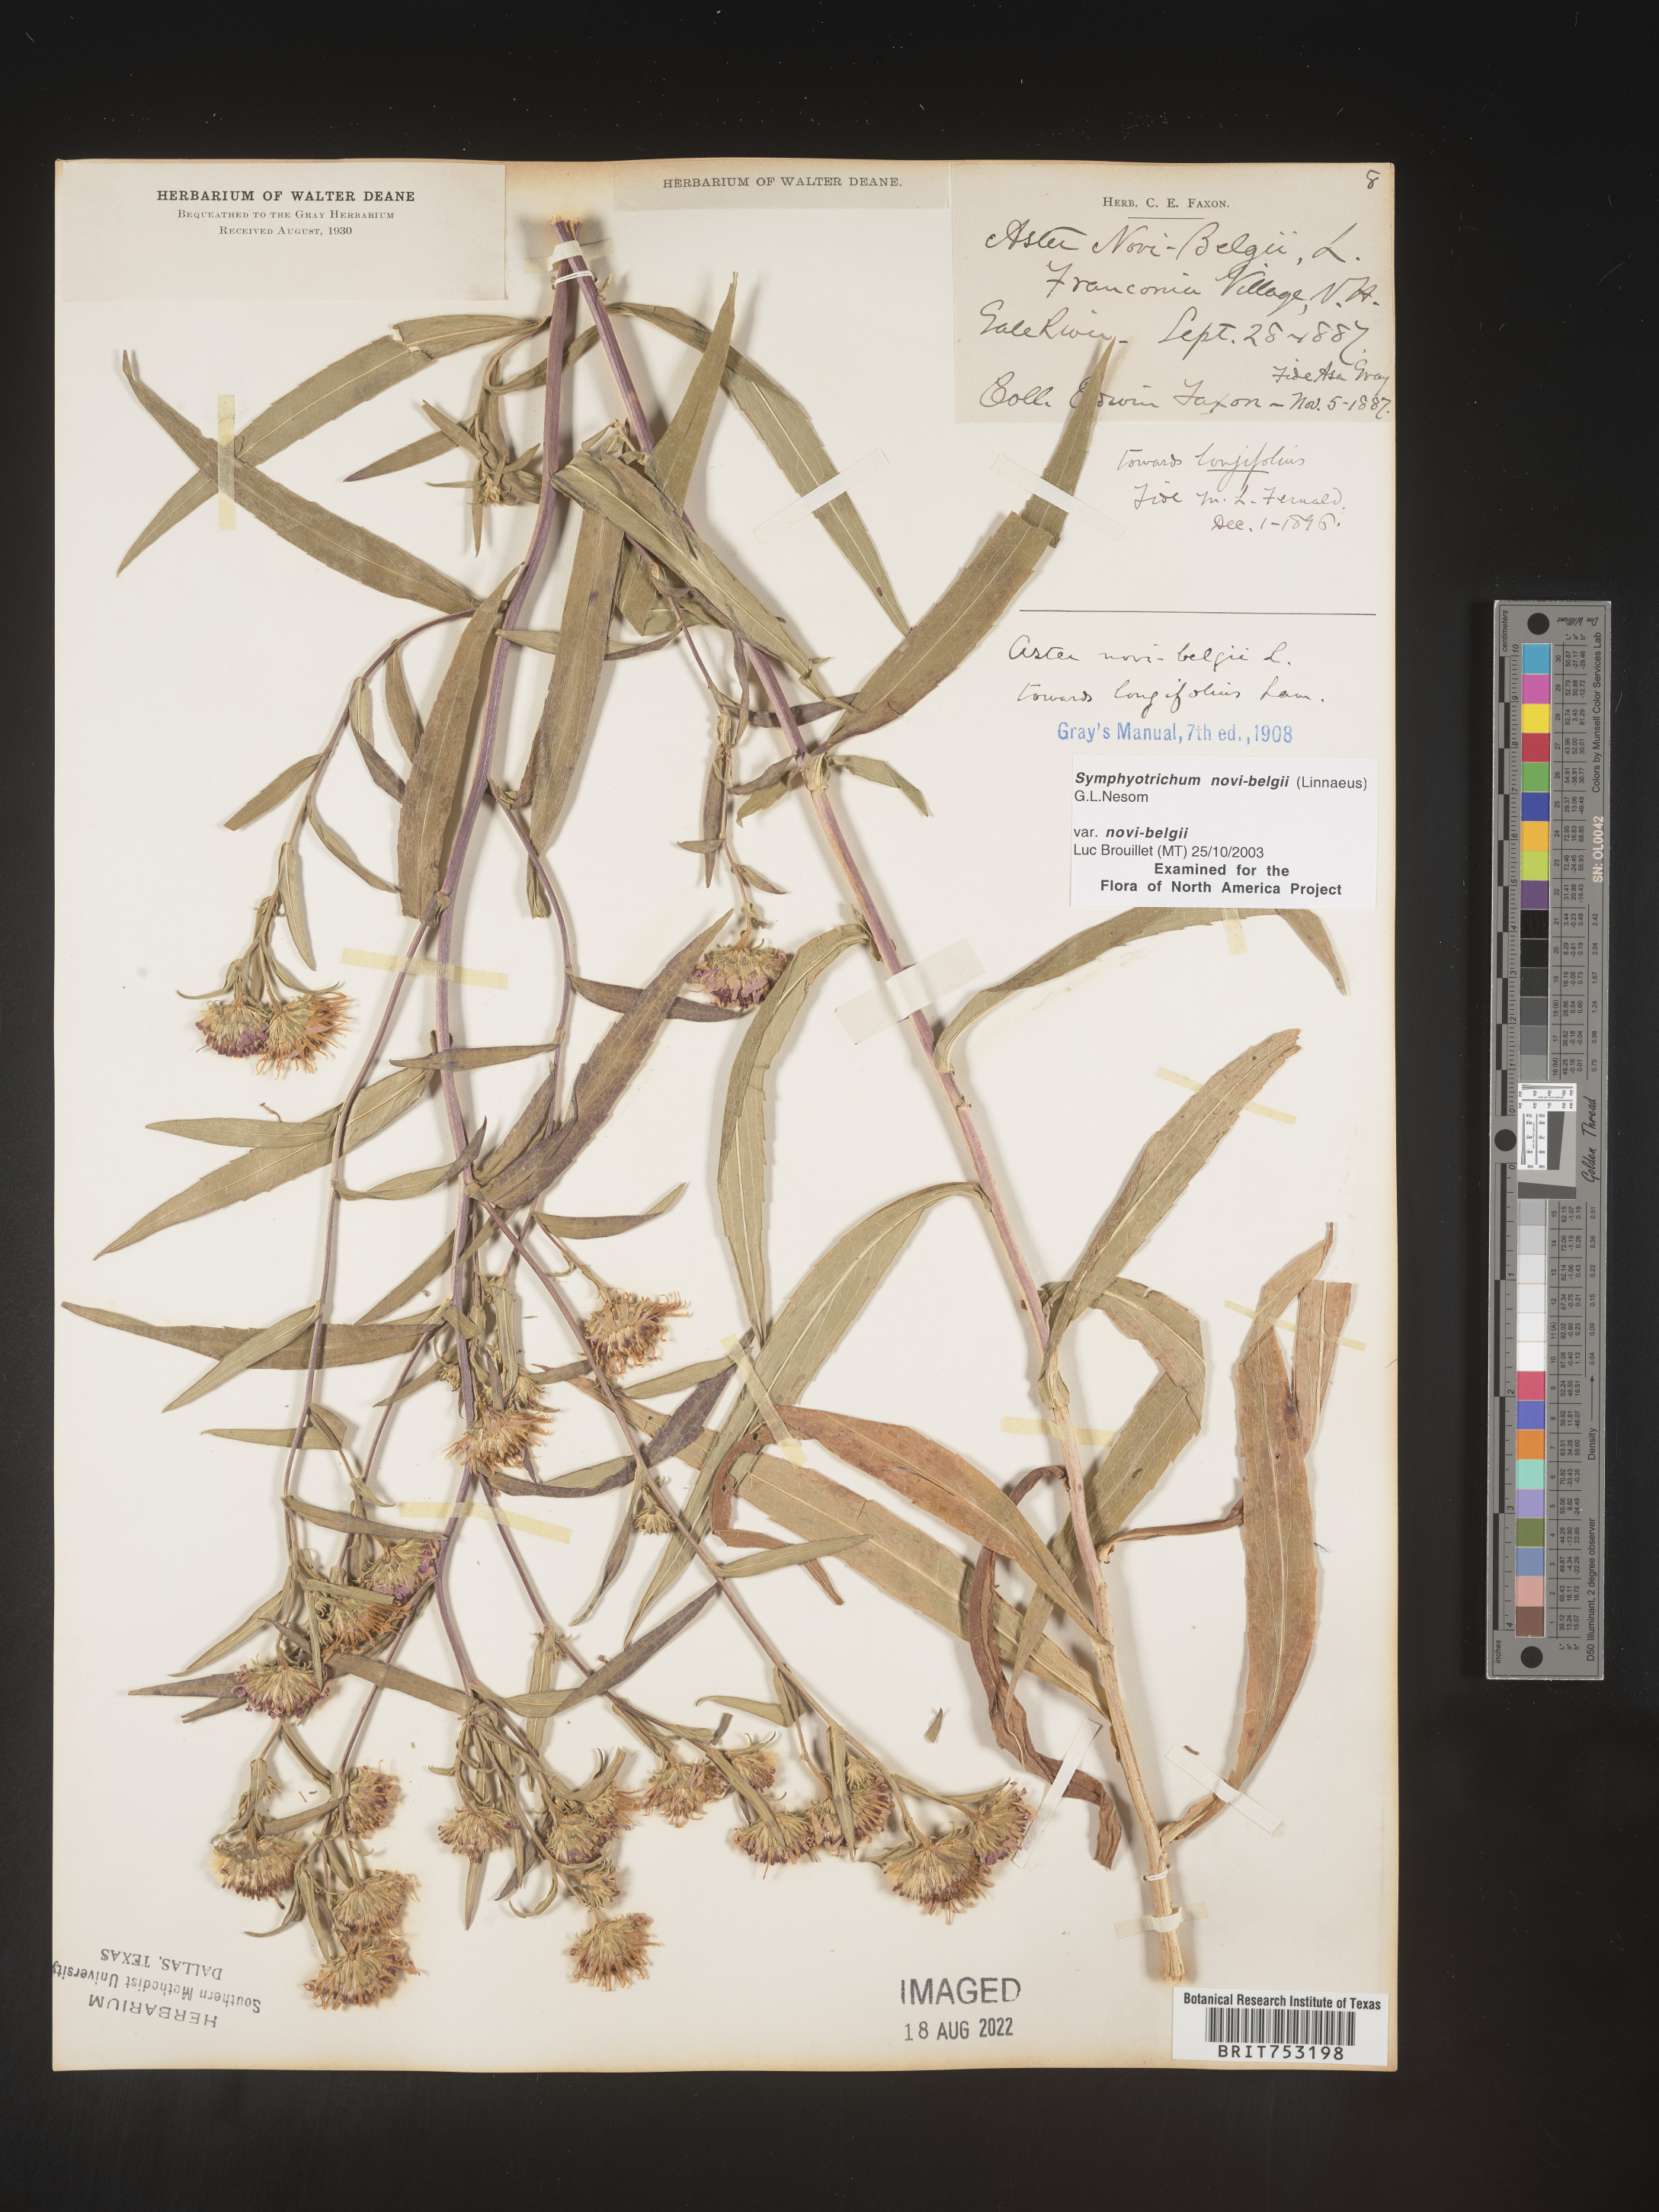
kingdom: Plantae
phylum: Tracheophyta
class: Magnoliopsida
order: Asterales
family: Asteraceae
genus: Symphyotrichum
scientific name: Symphyotrichum novi-belgii
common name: Michaelmas daisy
